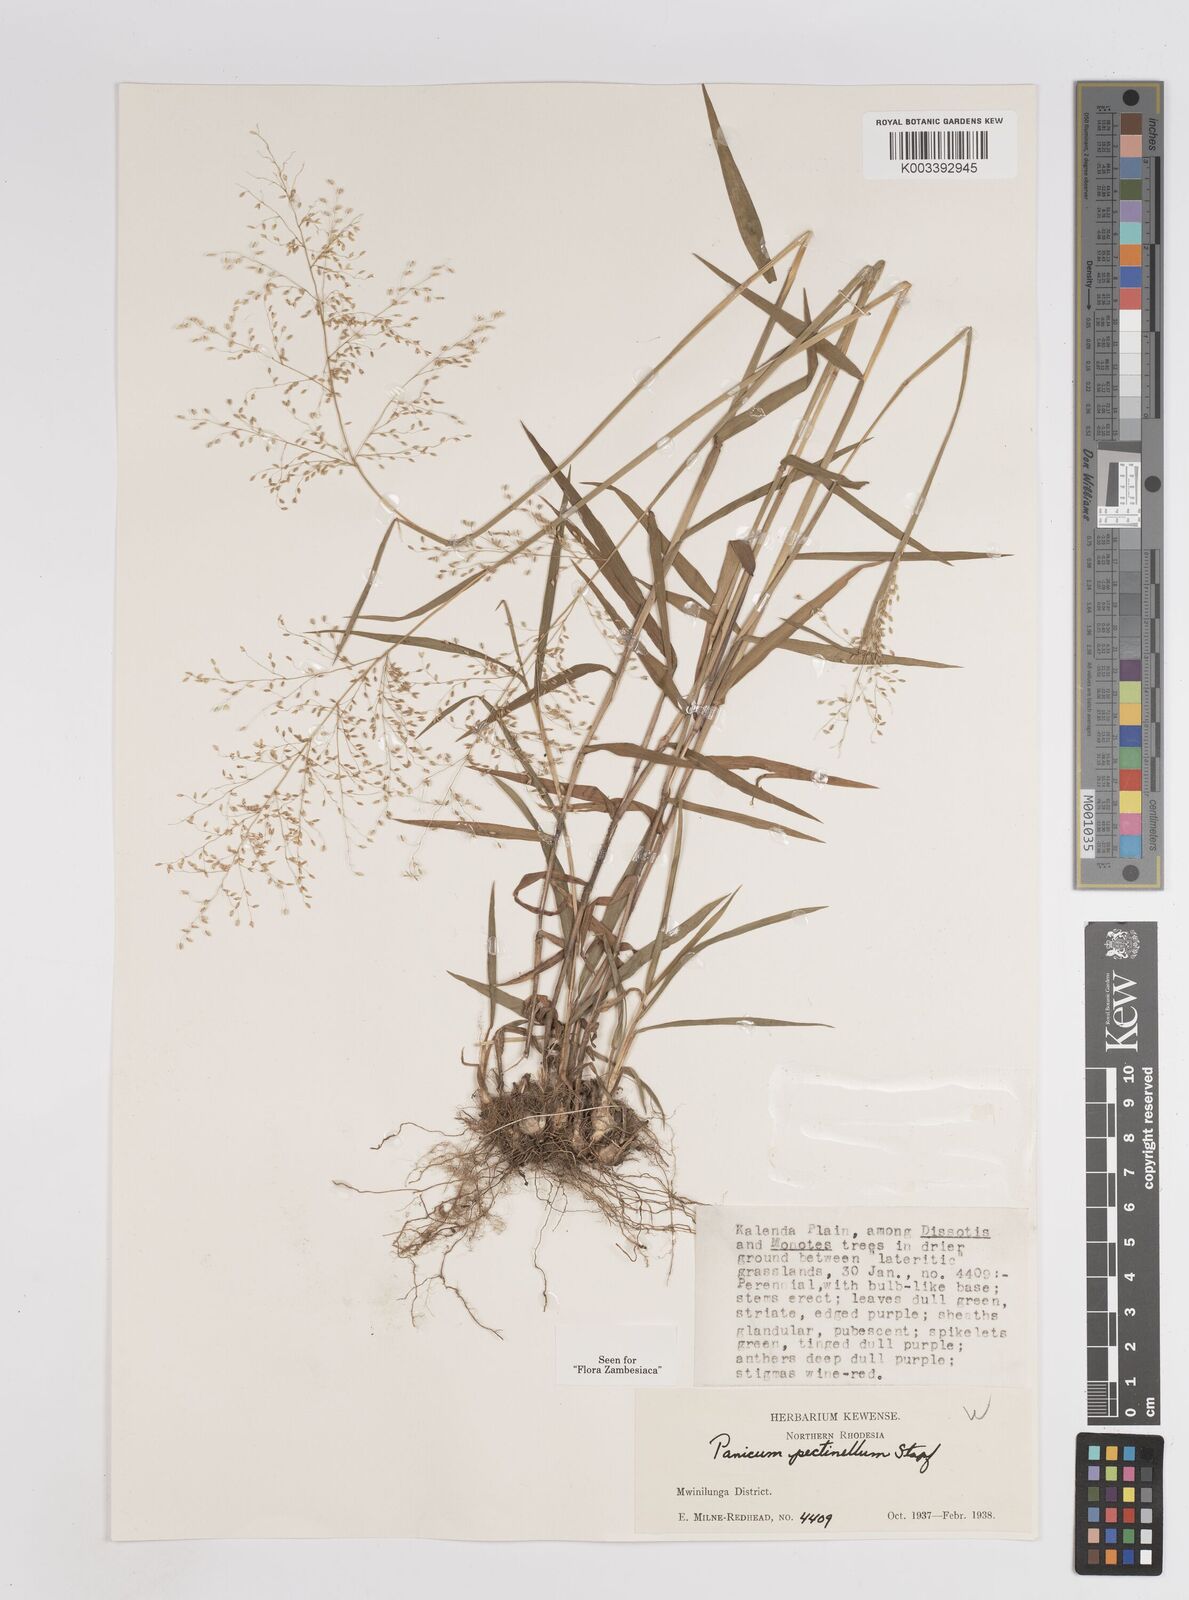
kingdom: Plantae
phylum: Tracheophyta
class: Liliopsida
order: Poales
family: Poaceae
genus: Adenochloa
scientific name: Adenochloa pectinella
